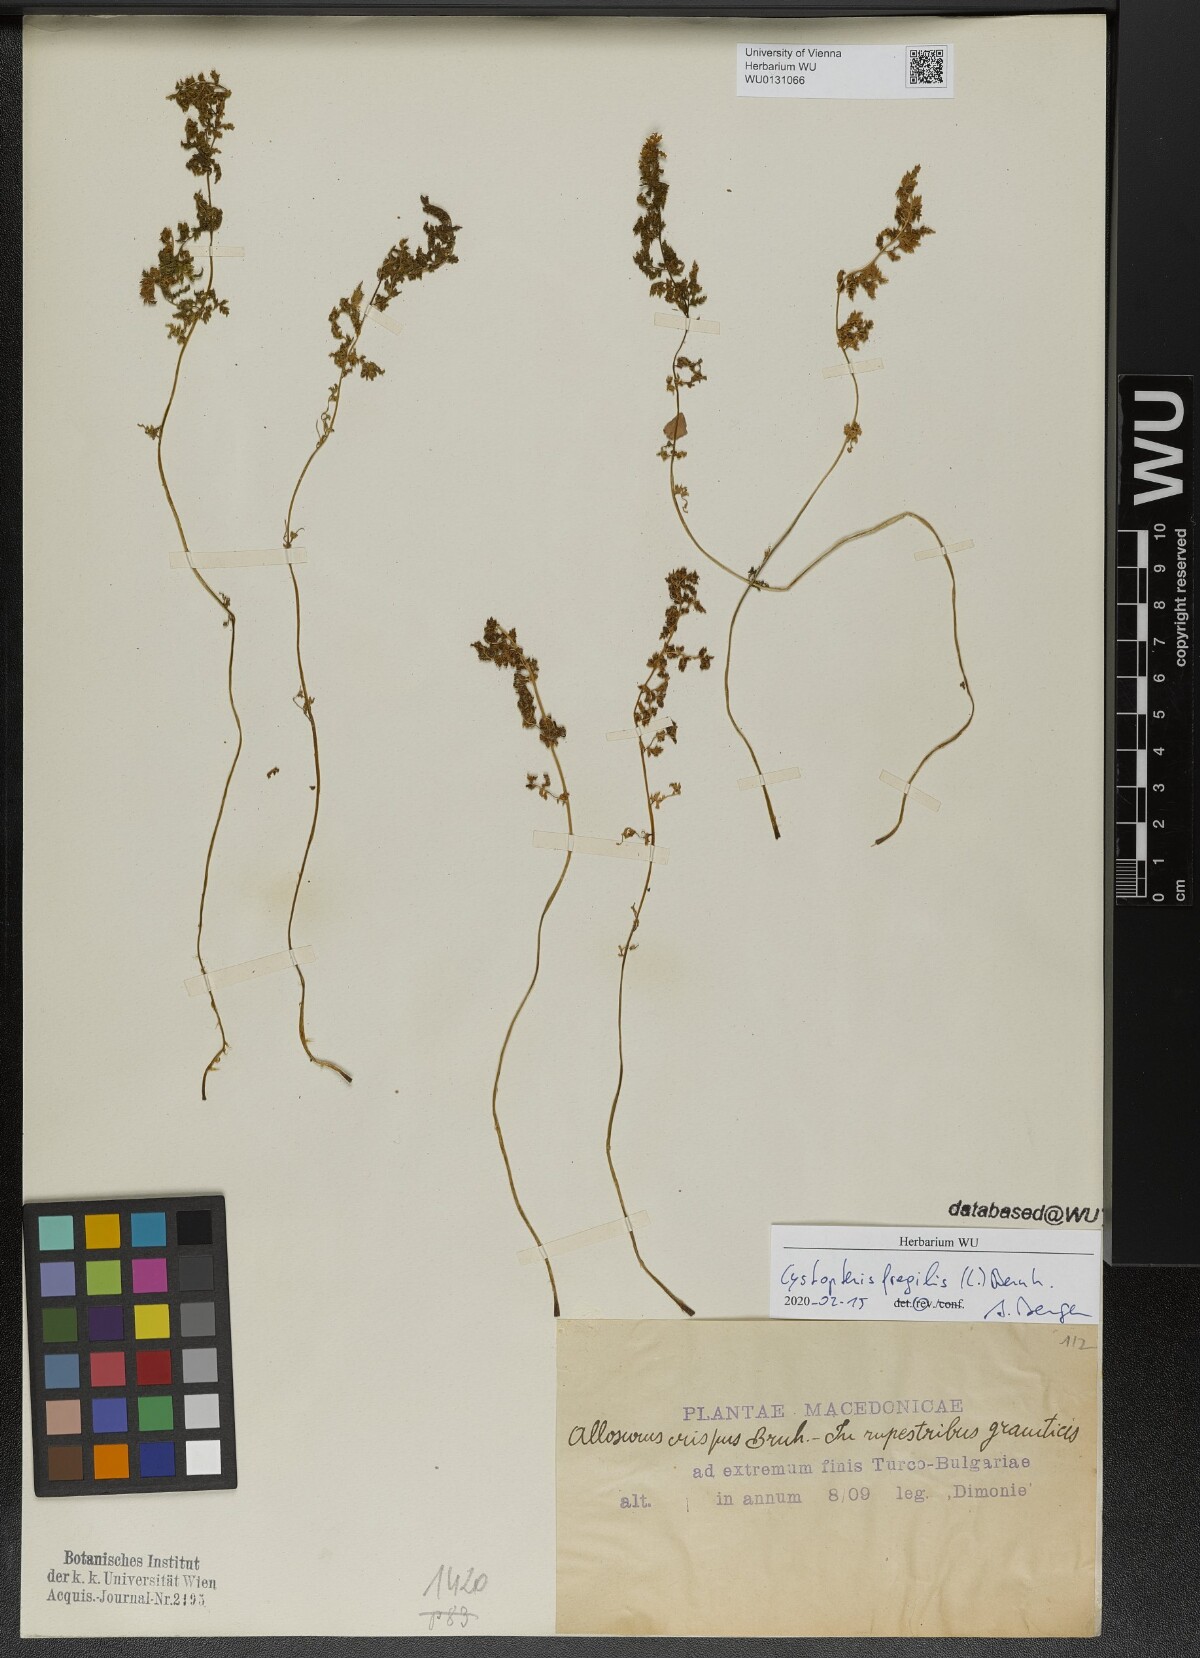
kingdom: Plantae
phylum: Tracheophyta
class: Polypodiopsida
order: Polypodiales
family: Cystopteridaceae
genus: Cystopteris
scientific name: Cystopteris fragilis
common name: Brittle bladder fern
